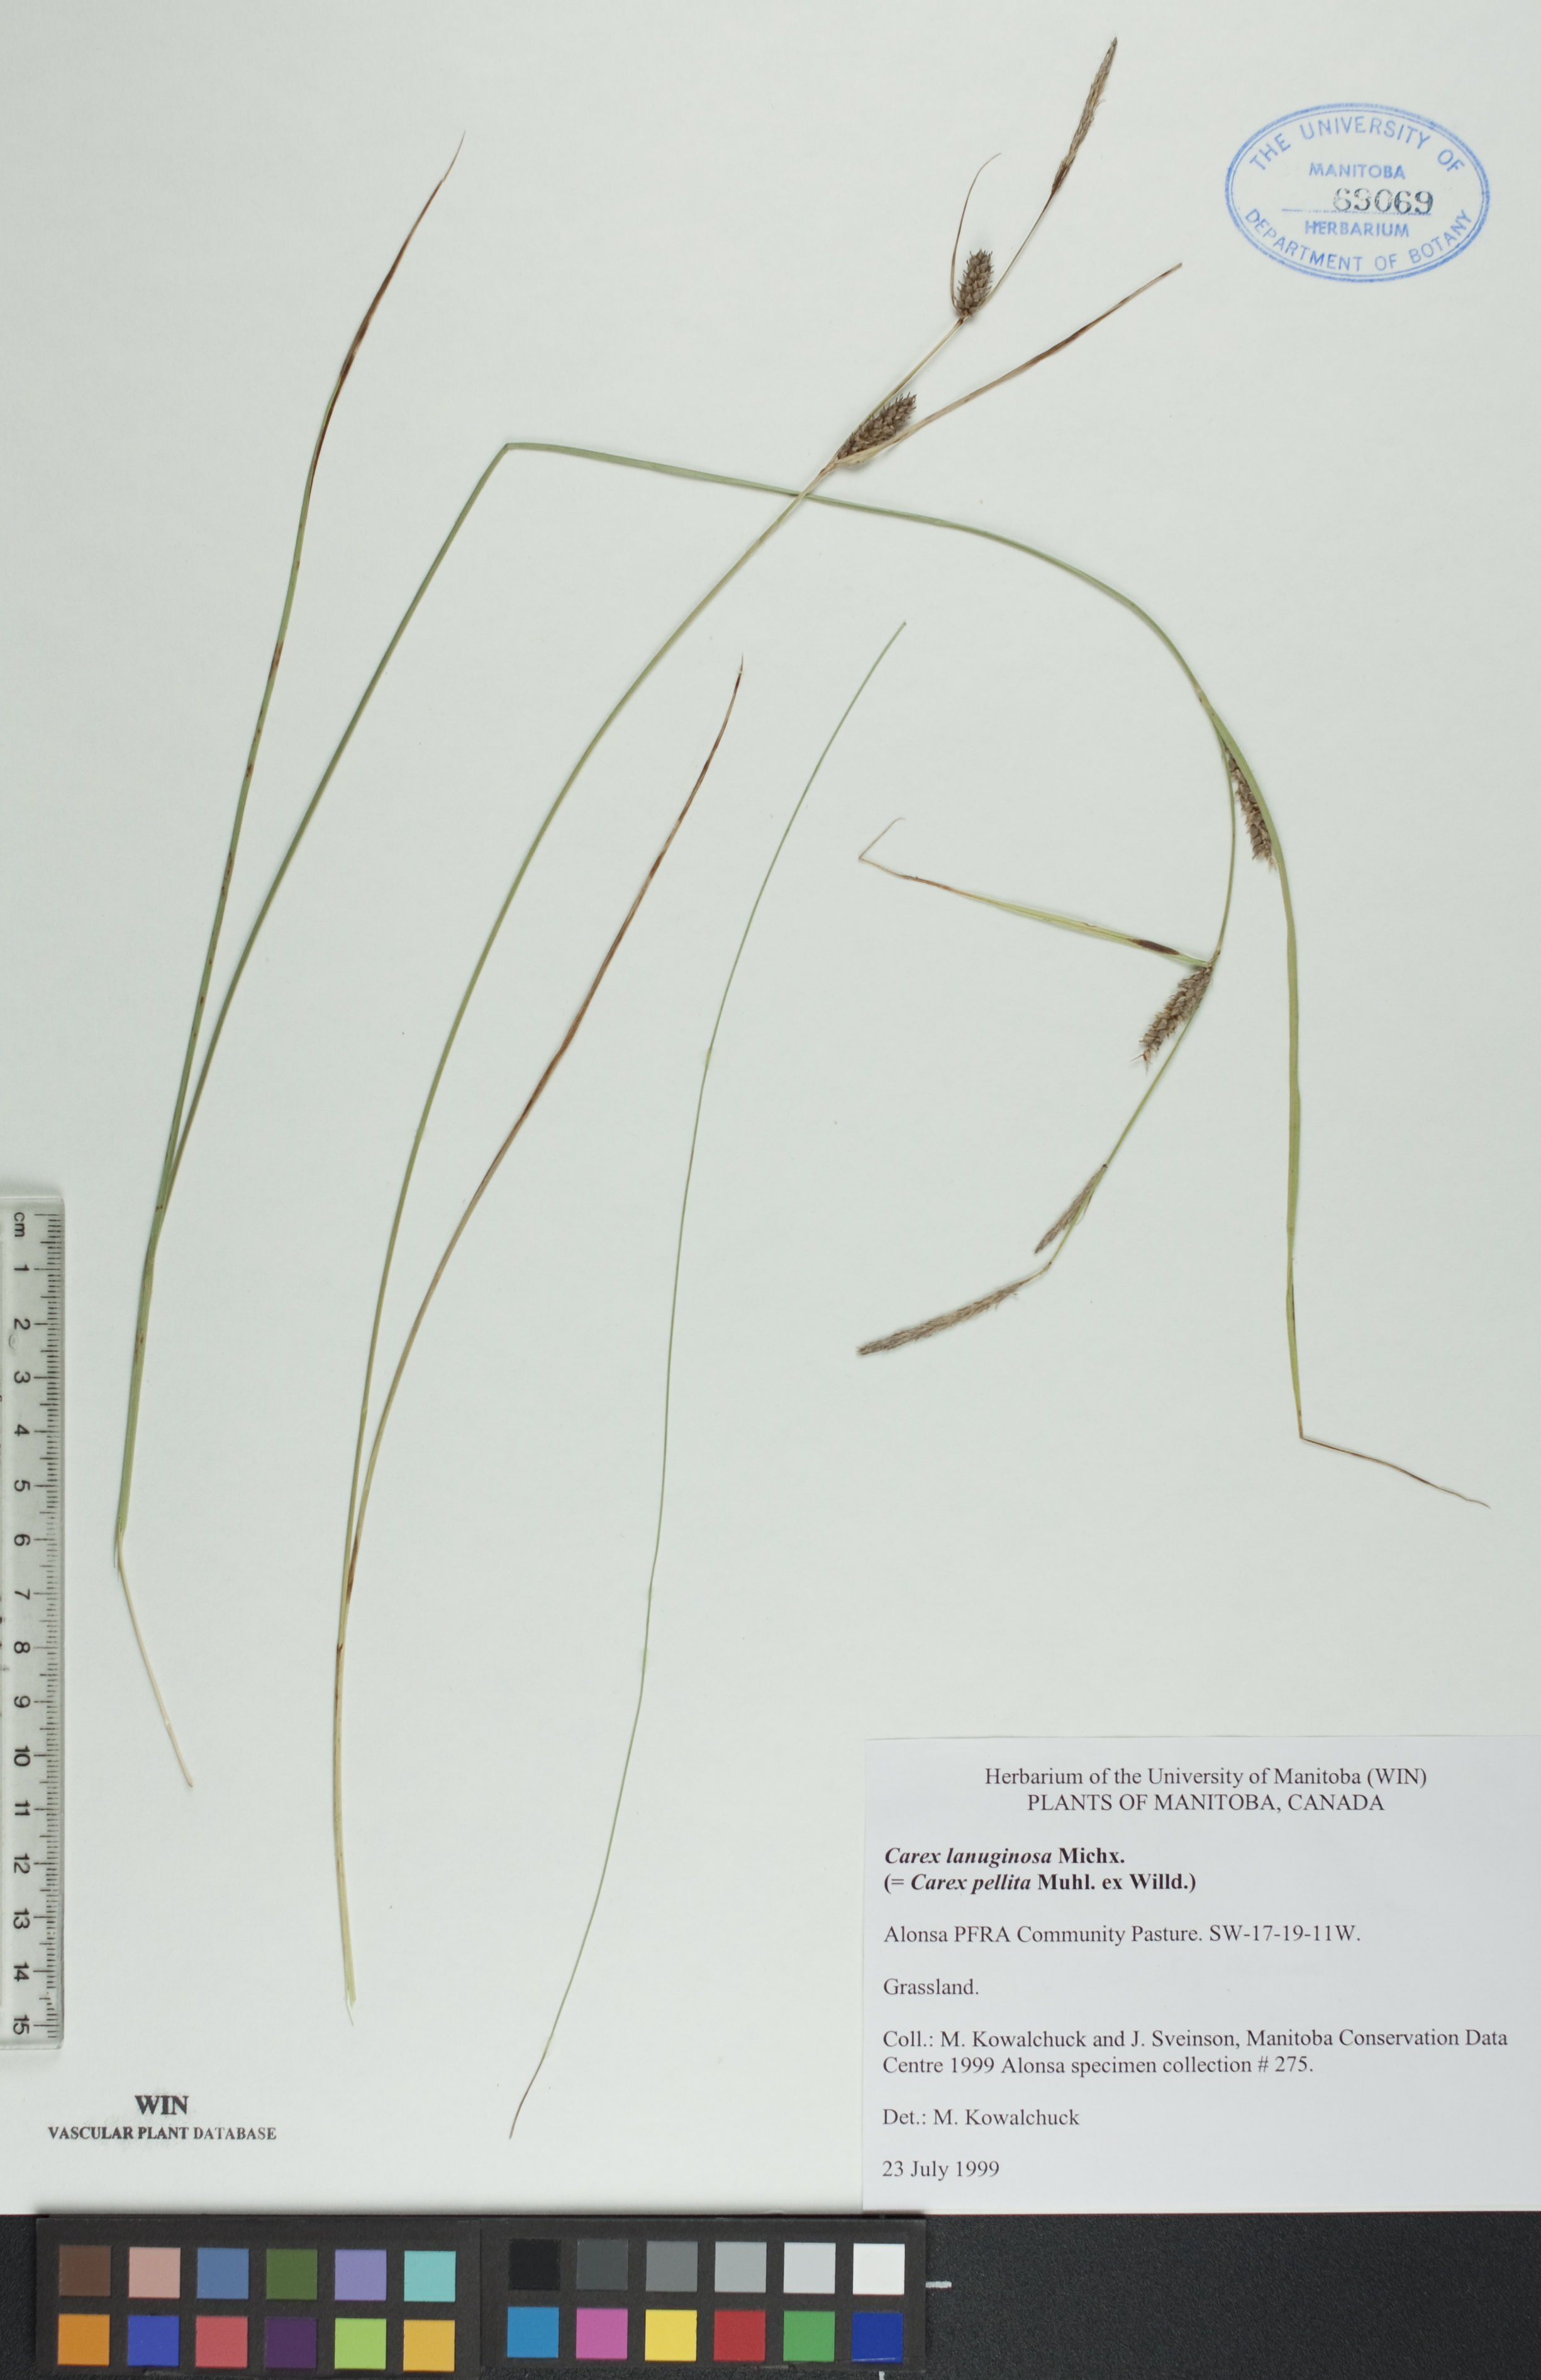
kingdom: Plantae
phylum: Tracheophyta
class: Liliopsida
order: Poales
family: Cyperaceae
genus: Carex
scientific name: Carex lasiocarpa
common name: Slender sedge
